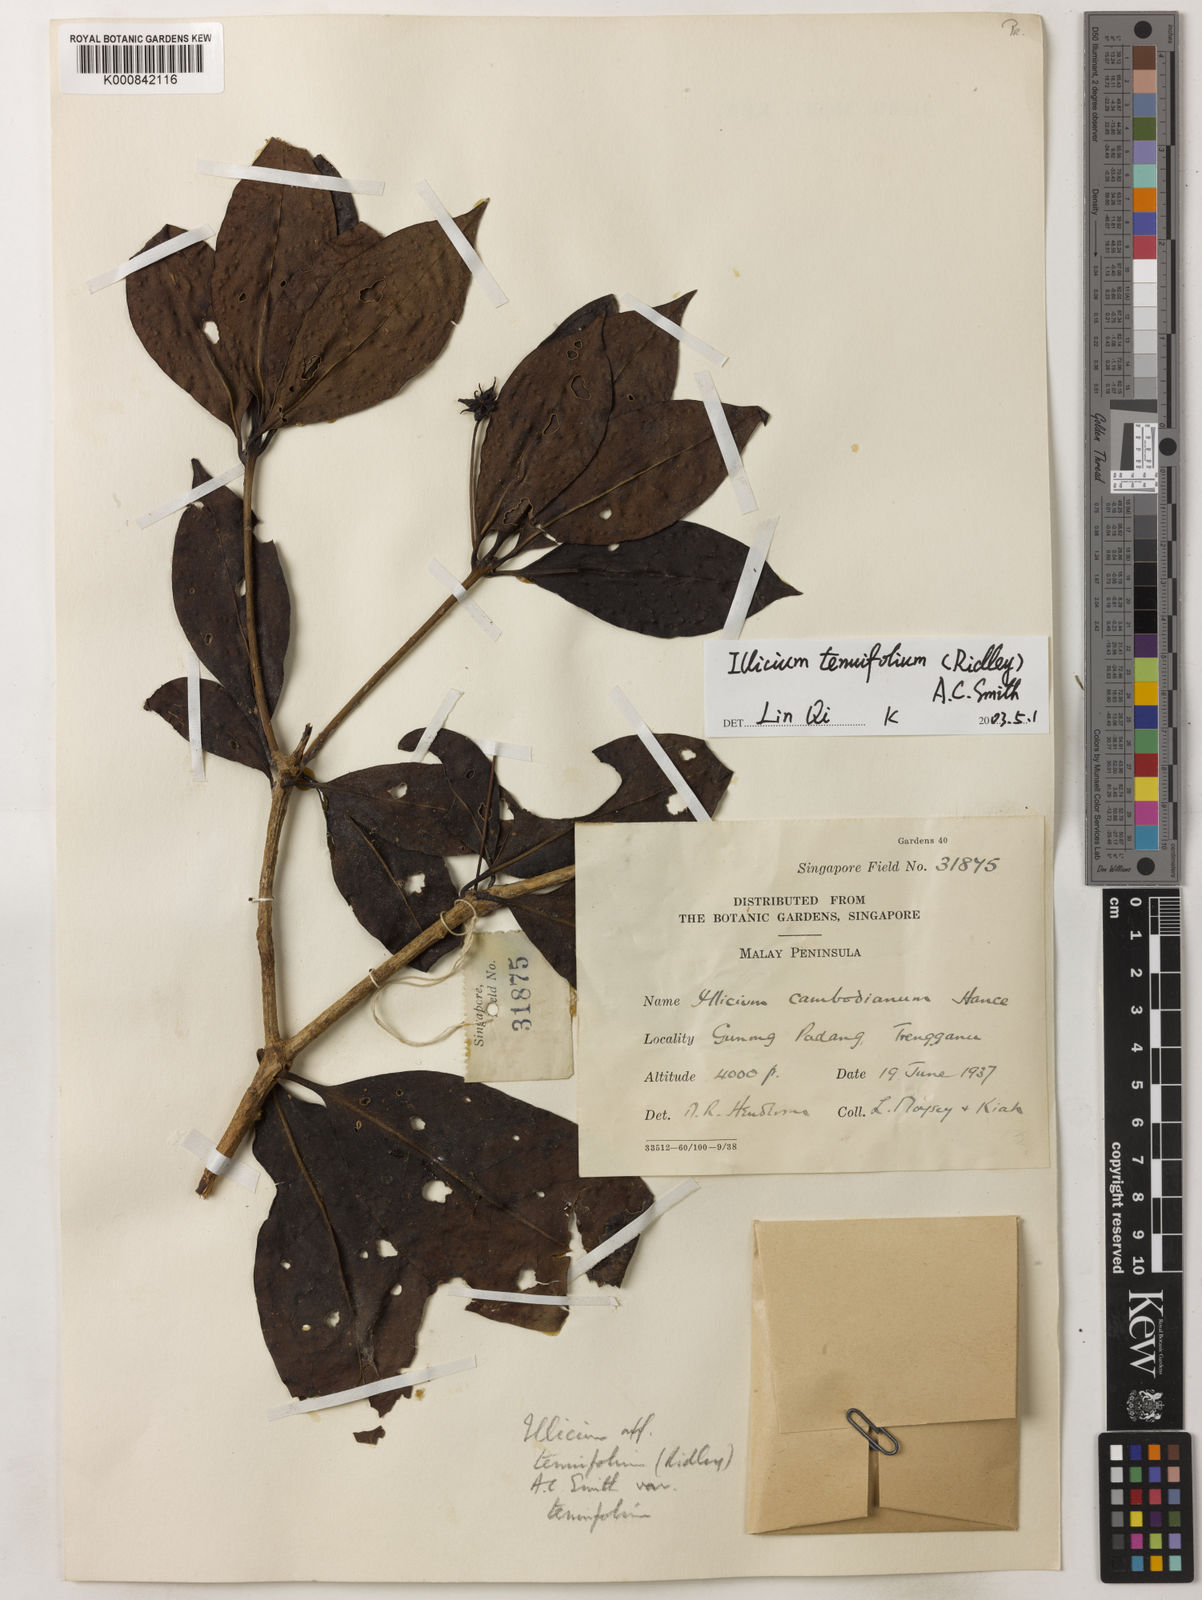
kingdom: Plantae
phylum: Tracheophyta
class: Magnoliopsida
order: Austrobaileyales
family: Schisandraceae
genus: Illicium
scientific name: Illicium tenuifolium
